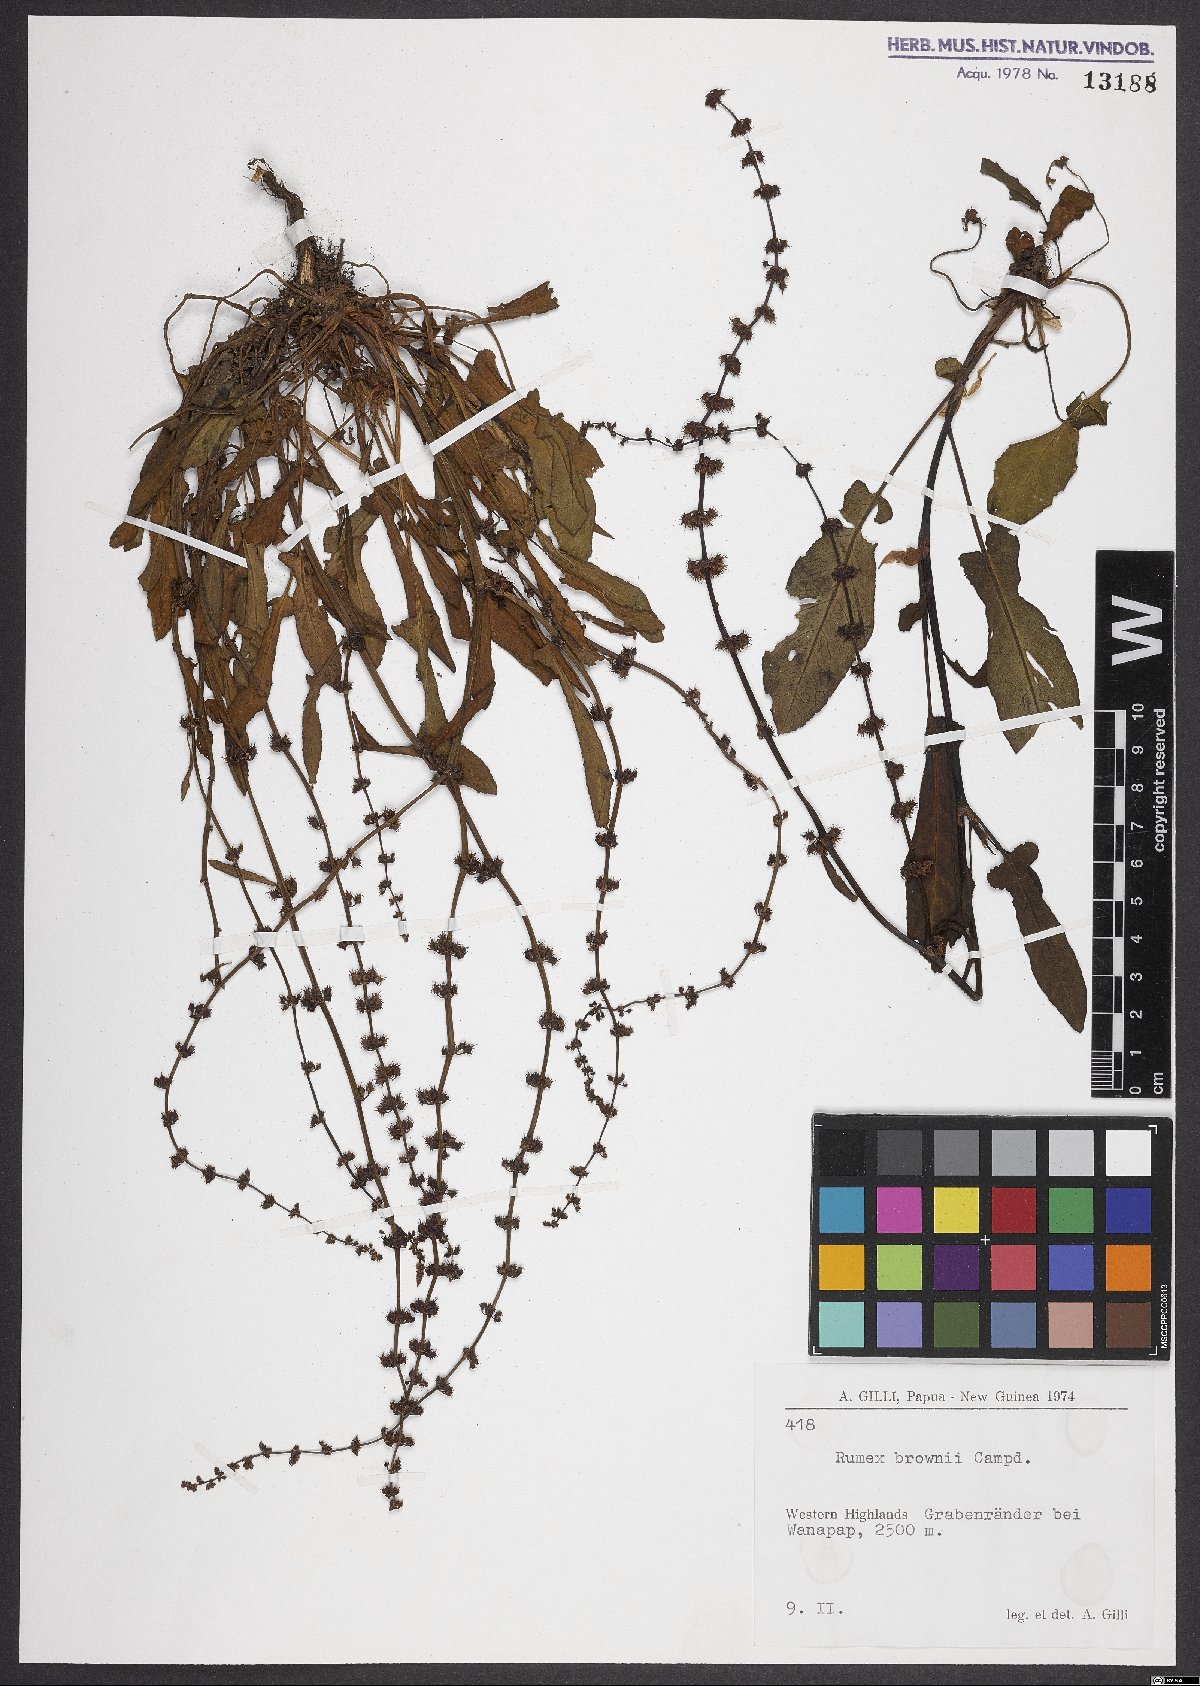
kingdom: Plantae
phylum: Tracheophyta
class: Magnoliopsida
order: Caryophyllales
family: Polygonaceae
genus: Rumex
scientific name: Rumex brownii
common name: Hooked dock
